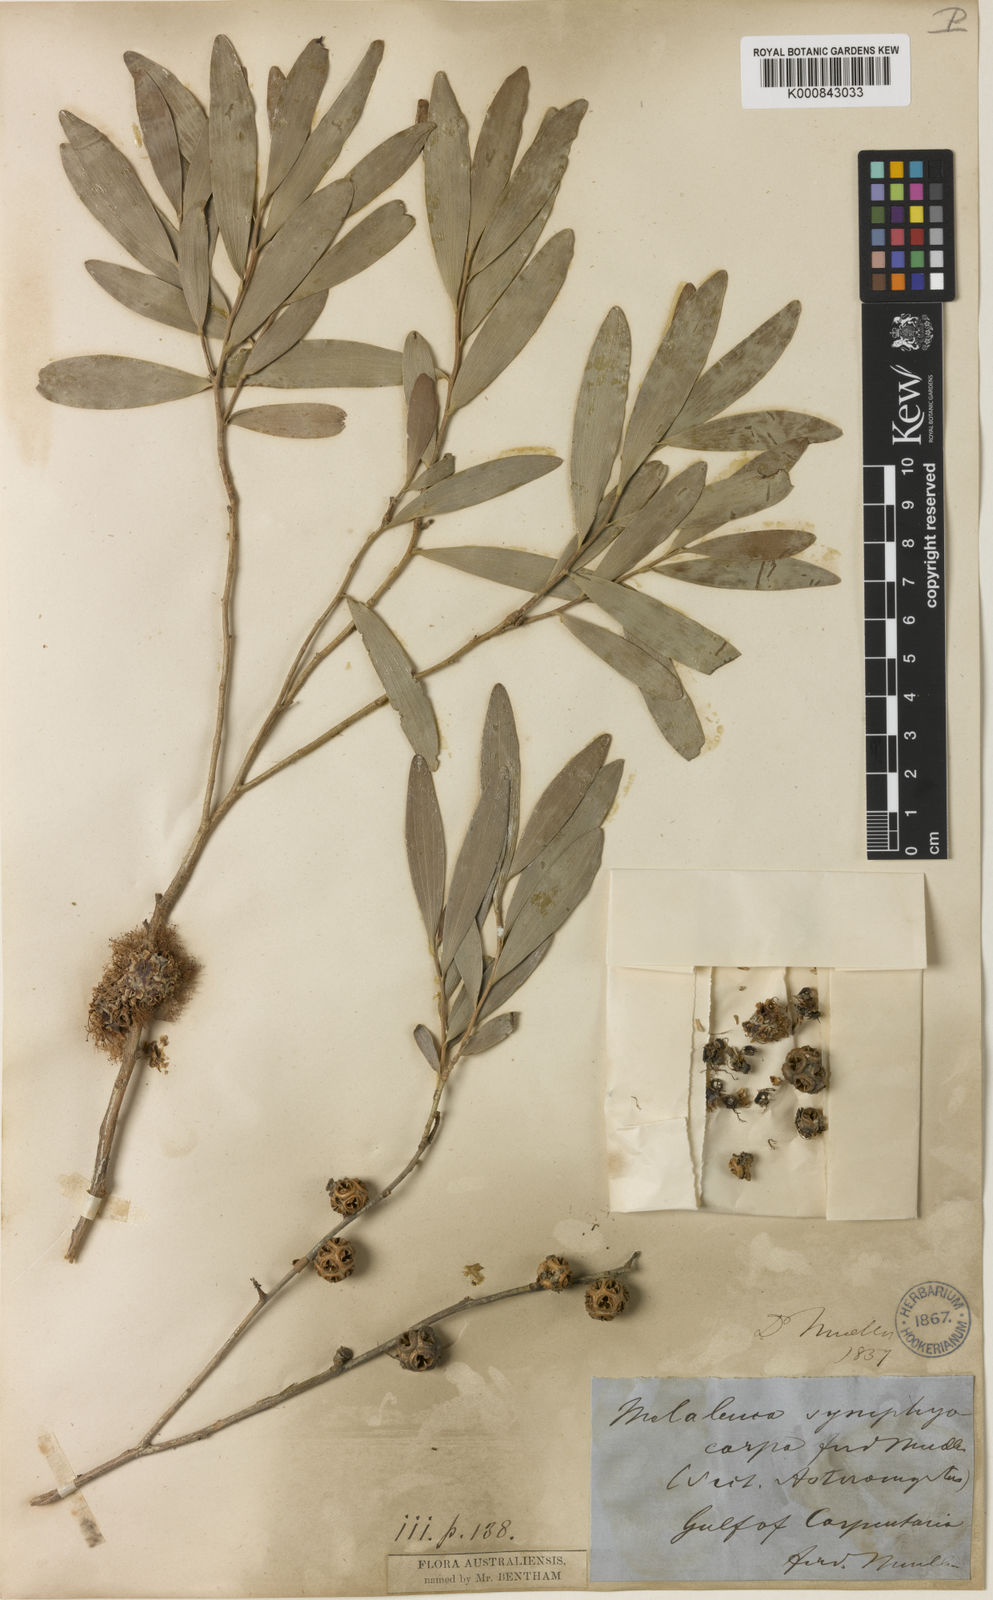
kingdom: Plantae
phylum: Tracheophyta
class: Magnoliopsida
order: Myrtales
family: Myrtaceae
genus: Asteromyrtus
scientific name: Asteromyrtus symphyocarpa
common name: Liniment-tree
